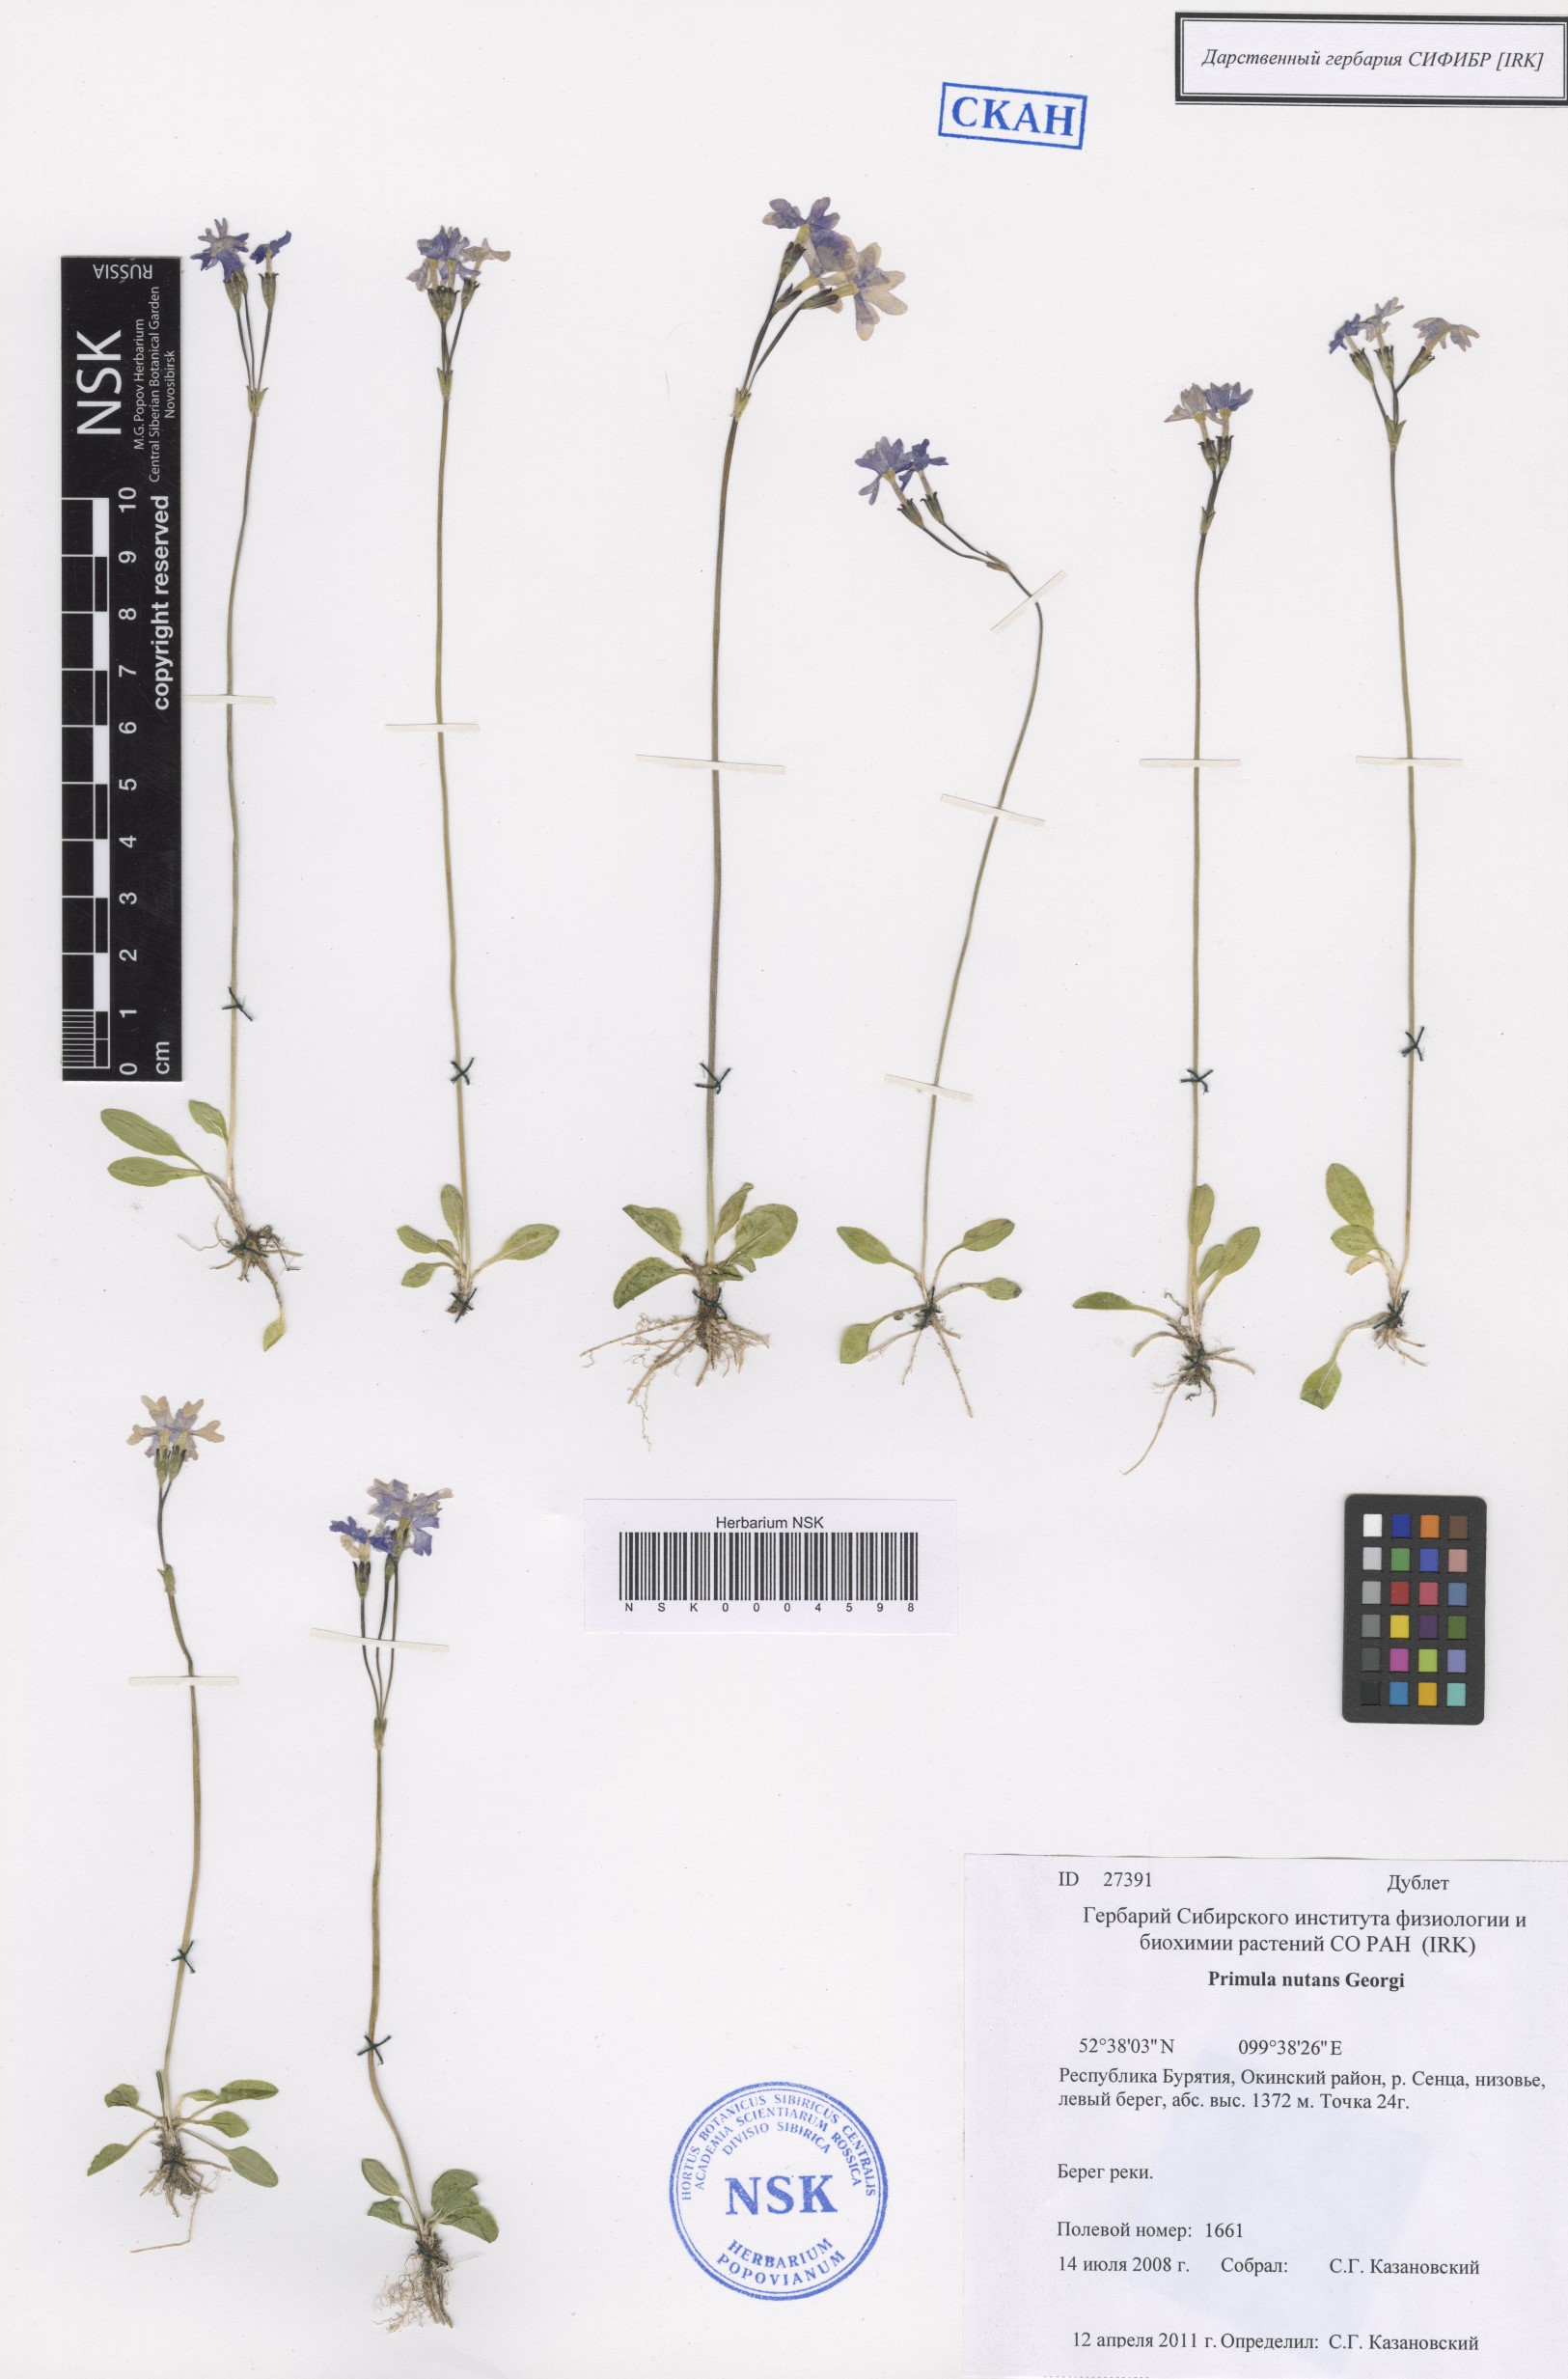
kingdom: Plantae
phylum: Tracheophyta
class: Magnoliopsida
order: Ericales
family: Primulaceae
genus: Primula
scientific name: Primula nutans
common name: Siberian primrose
